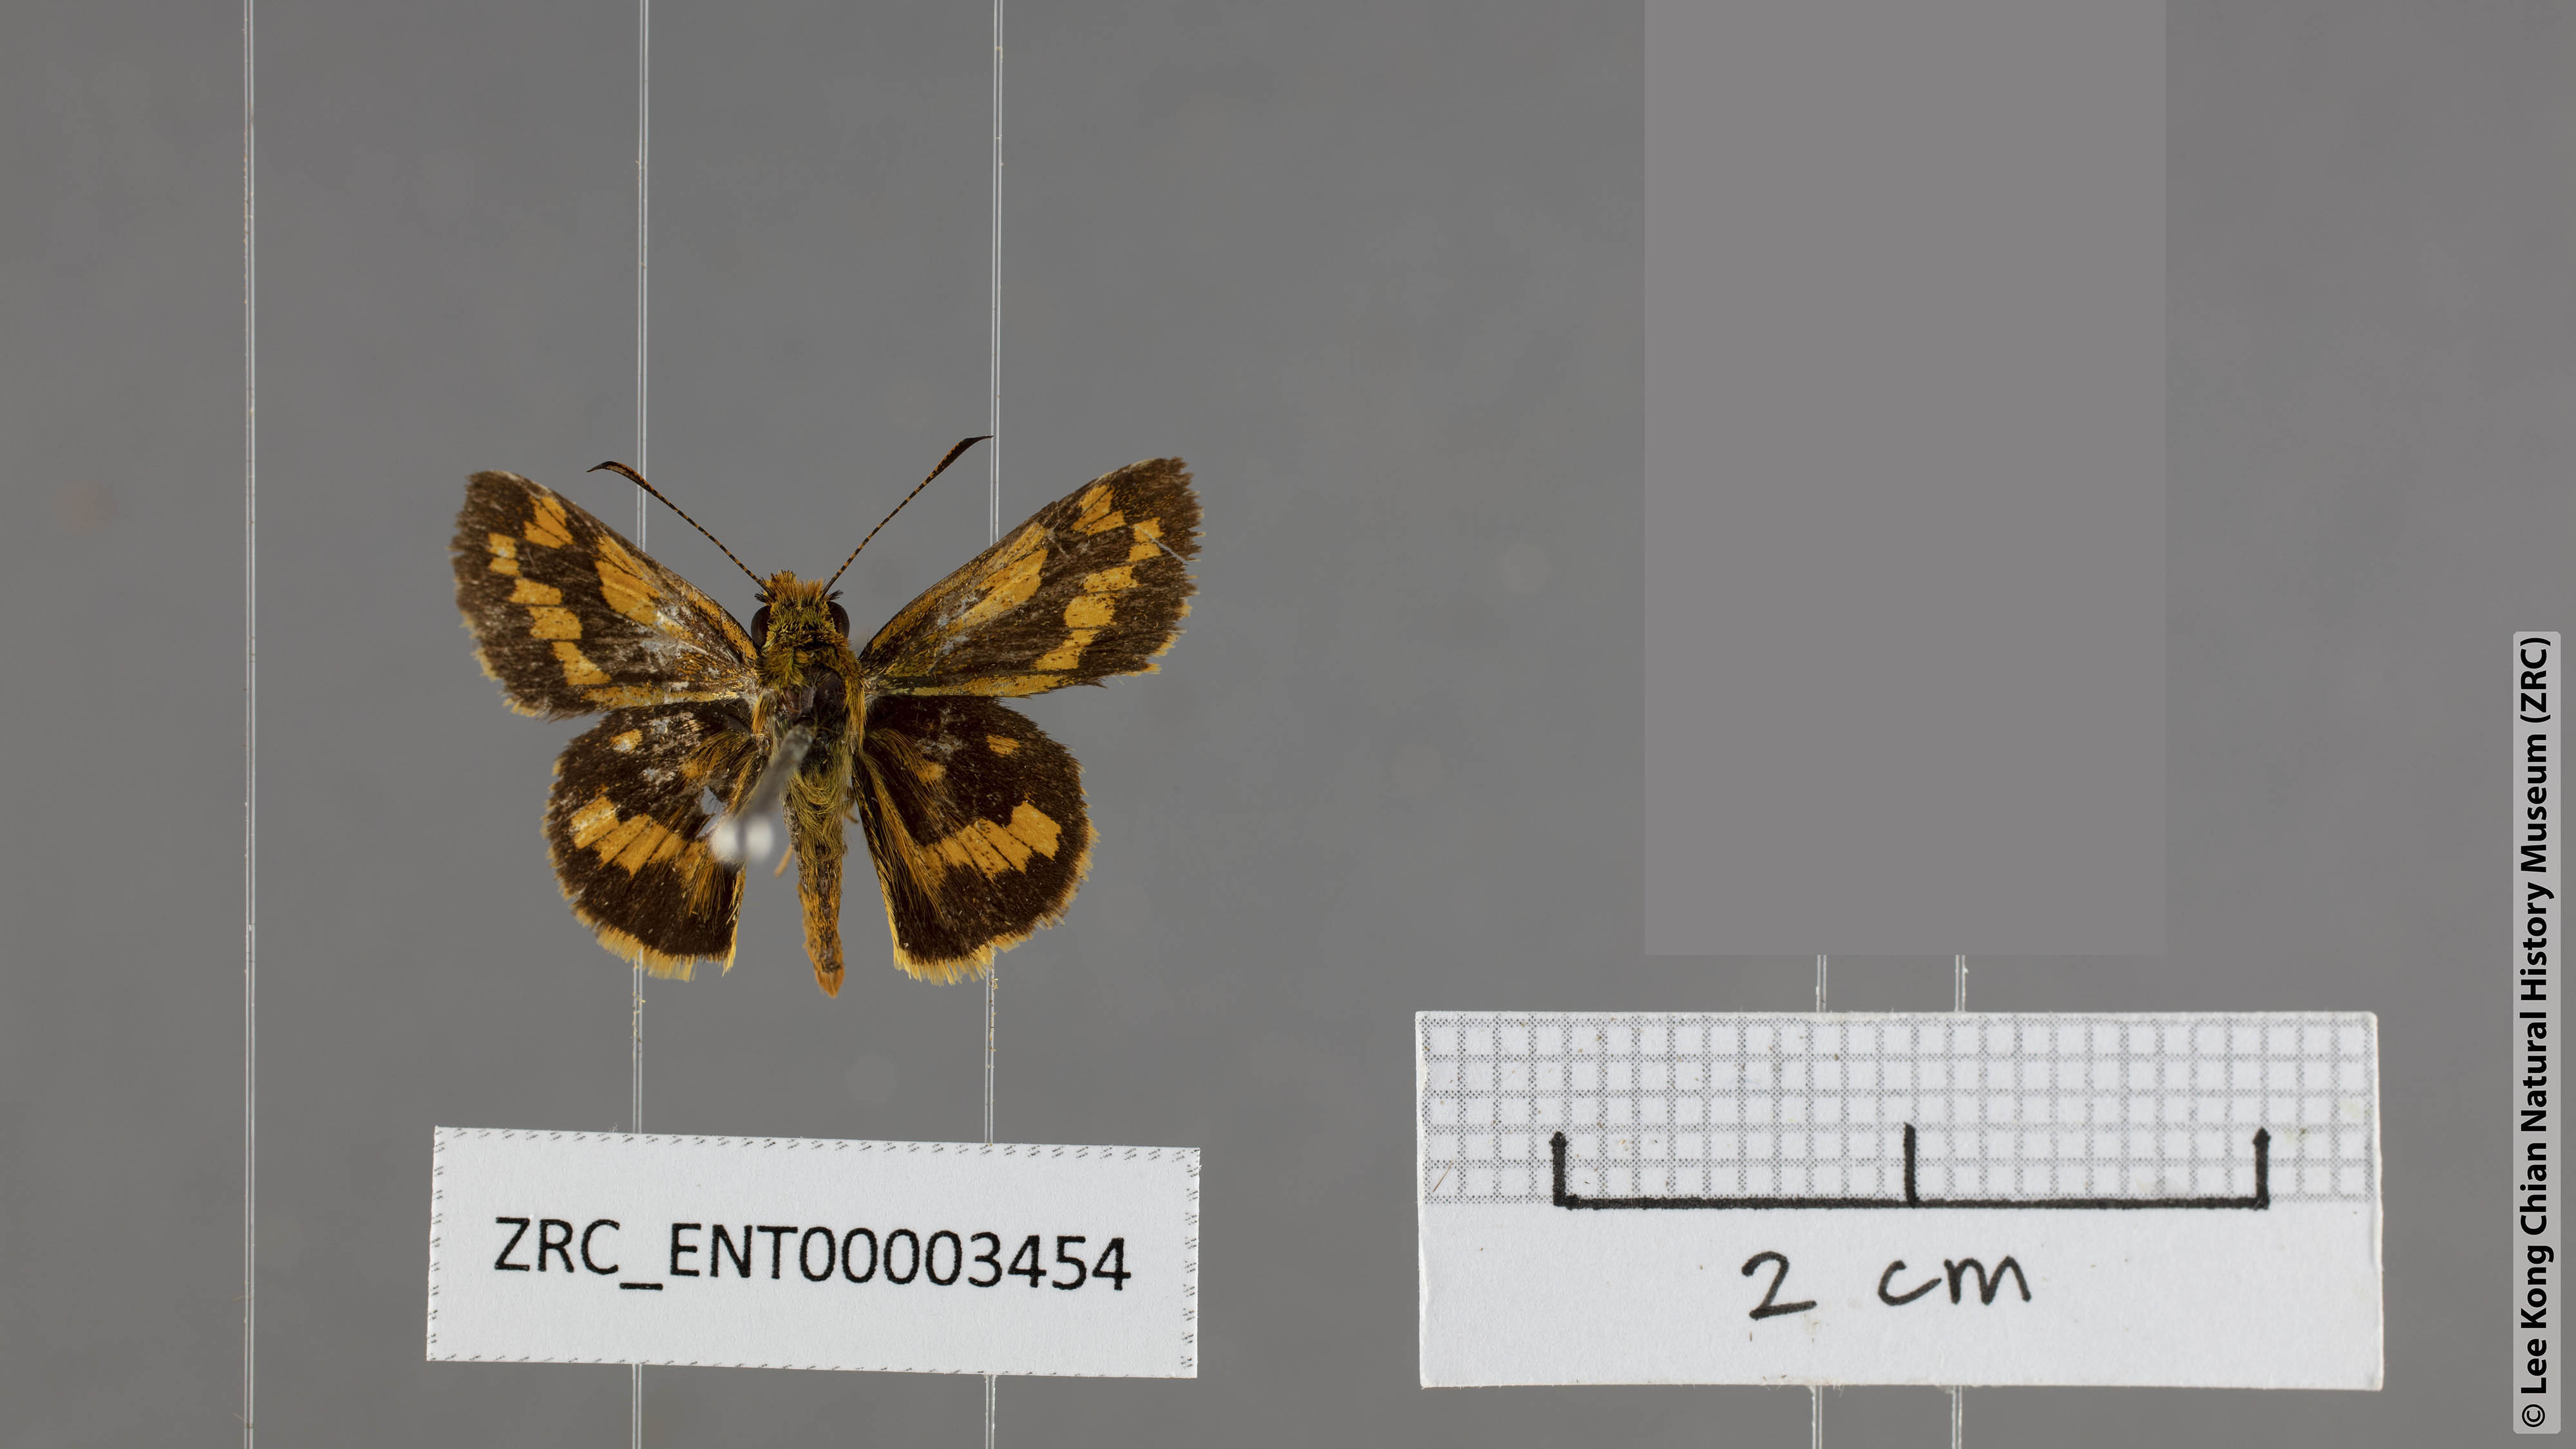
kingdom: Animalia
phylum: Arthropoda
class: Insecta
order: Lepidoptera
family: Hesperiidae
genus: Potanthus
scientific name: Potanthus chloe
